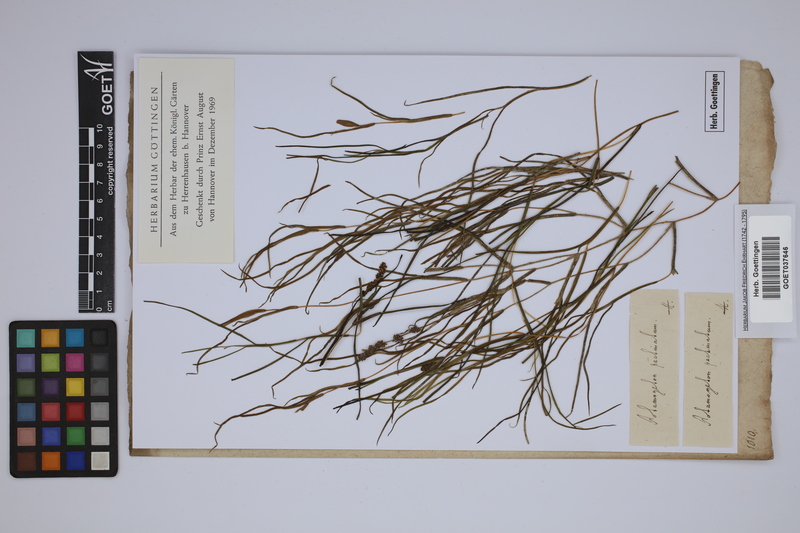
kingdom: Plantae
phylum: Tracheophyta
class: Liliopsida
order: Alismatales
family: Potamogetonaceae
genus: Stuckenia
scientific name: Stuckenia pectinata
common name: Sago pondweed
